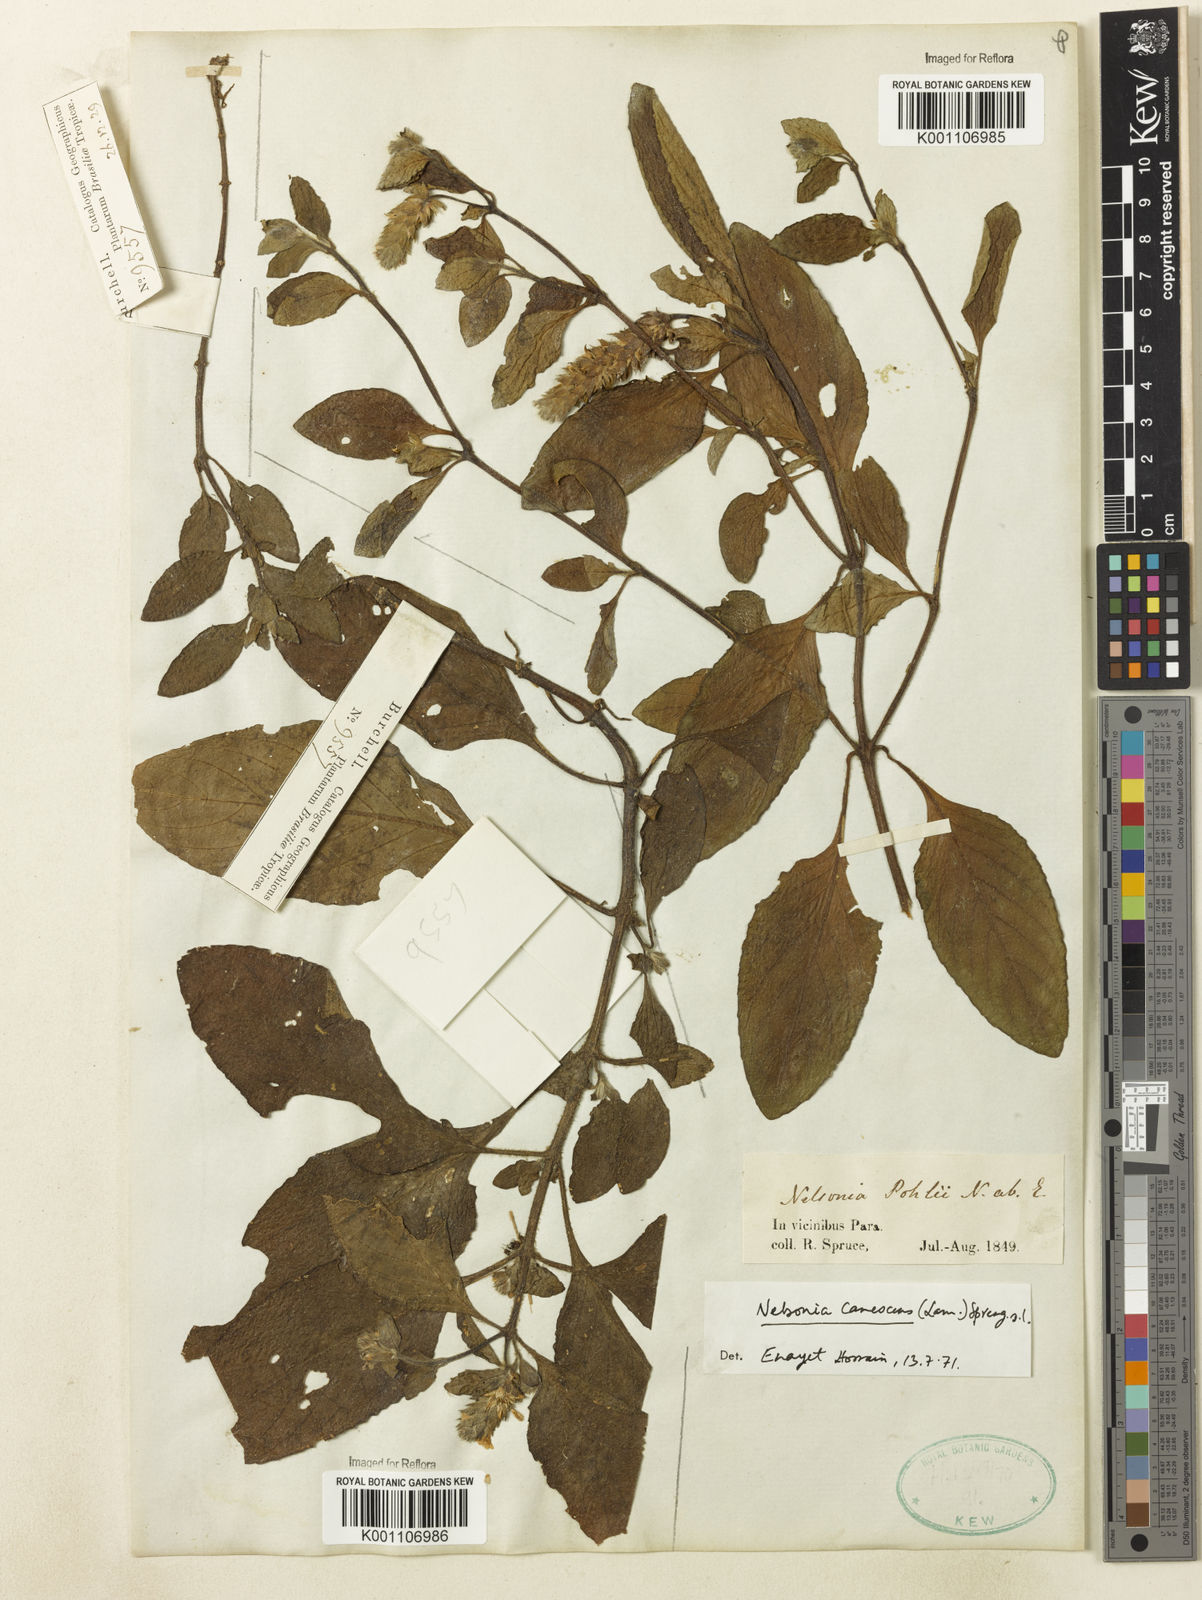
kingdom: Plantae
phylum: Tracheophyta
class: Magnoliopsida
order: Lamiales
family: Acanthaceae
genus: Nelsonia
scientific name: Nelsonia canescens
